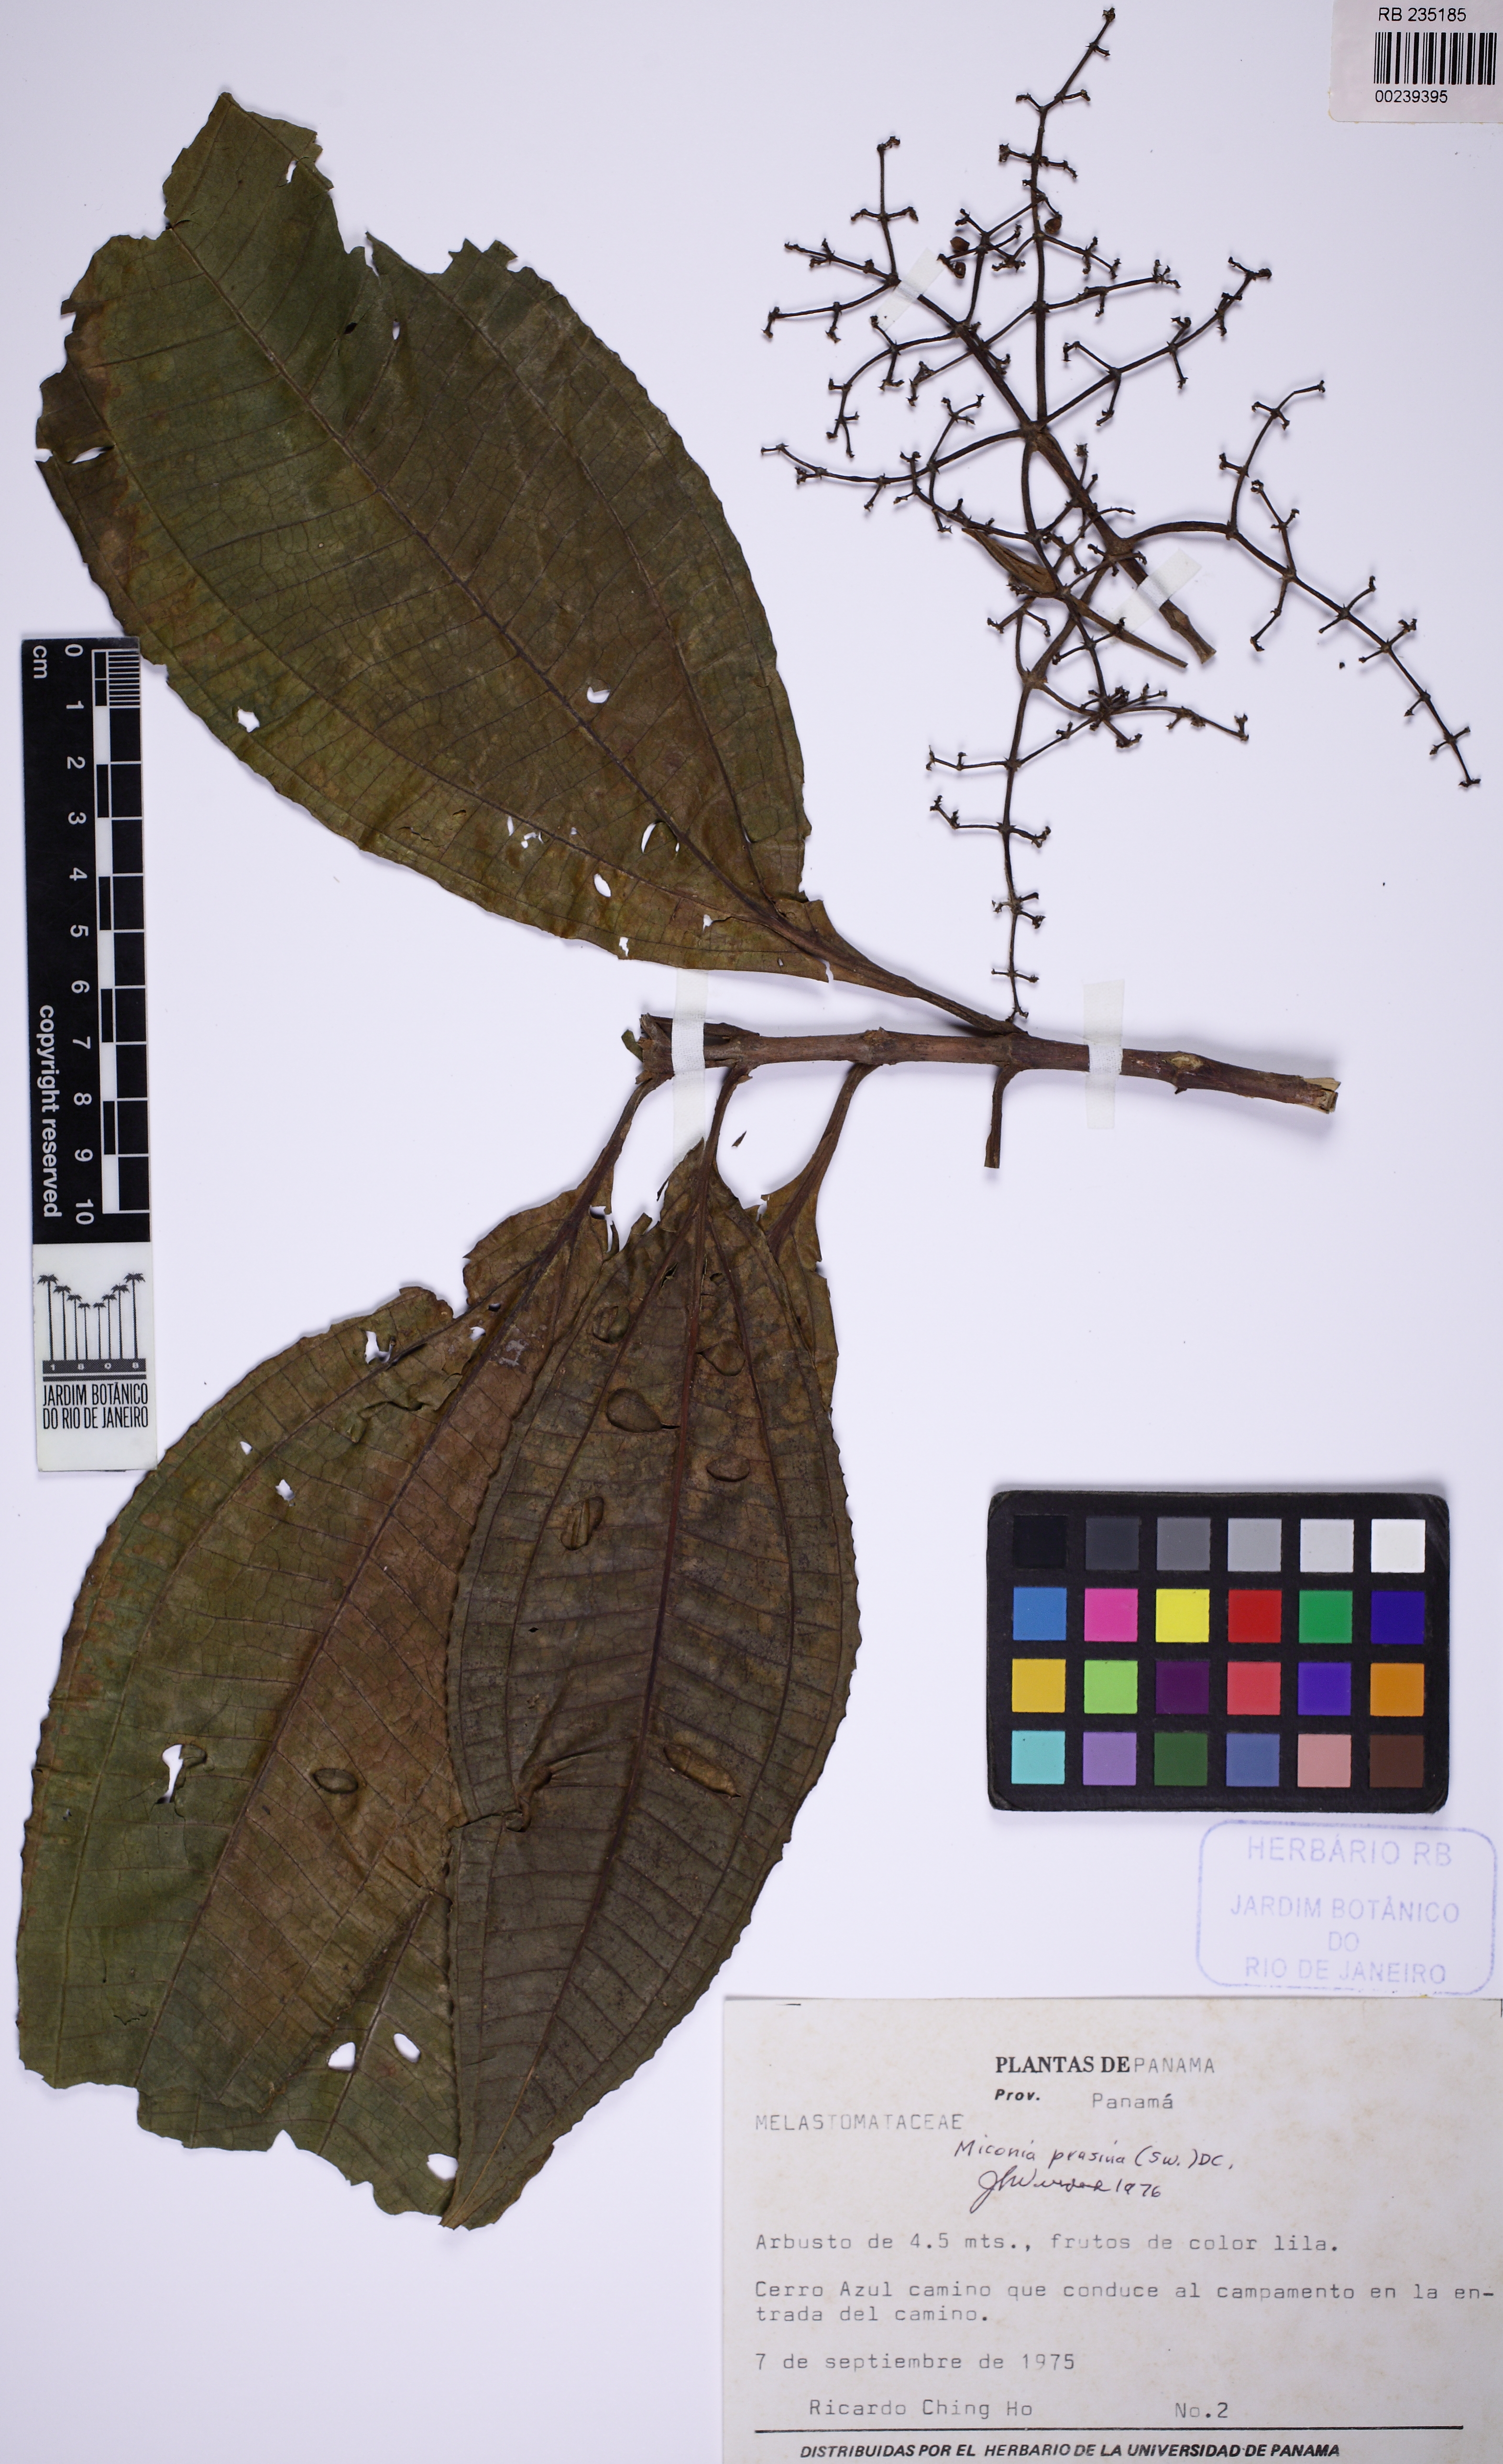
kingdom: Plantae
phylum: Tracheophyta
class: Magnoliopsida
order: Myrtales
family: Melastomataceae
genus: Miconia
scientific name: Miconia prasina
